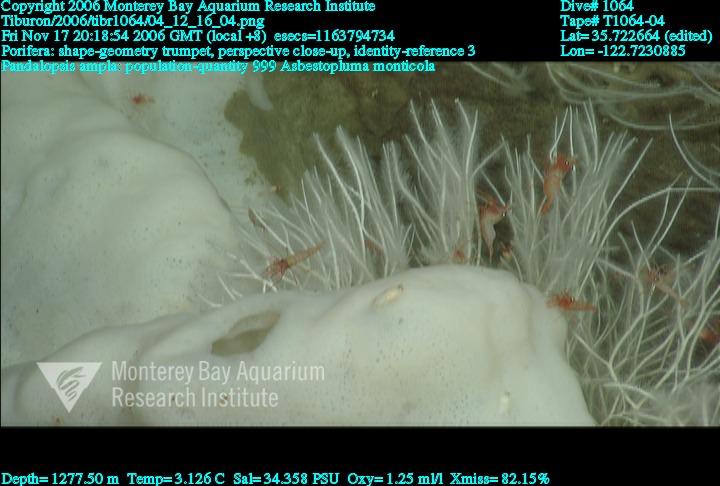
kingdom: Animalia
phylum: Porifera
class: Demospongiae
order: Poecilosclerida
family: Cladorhizidae
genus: Asbestopluma
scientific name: Asbestopluma monticola
